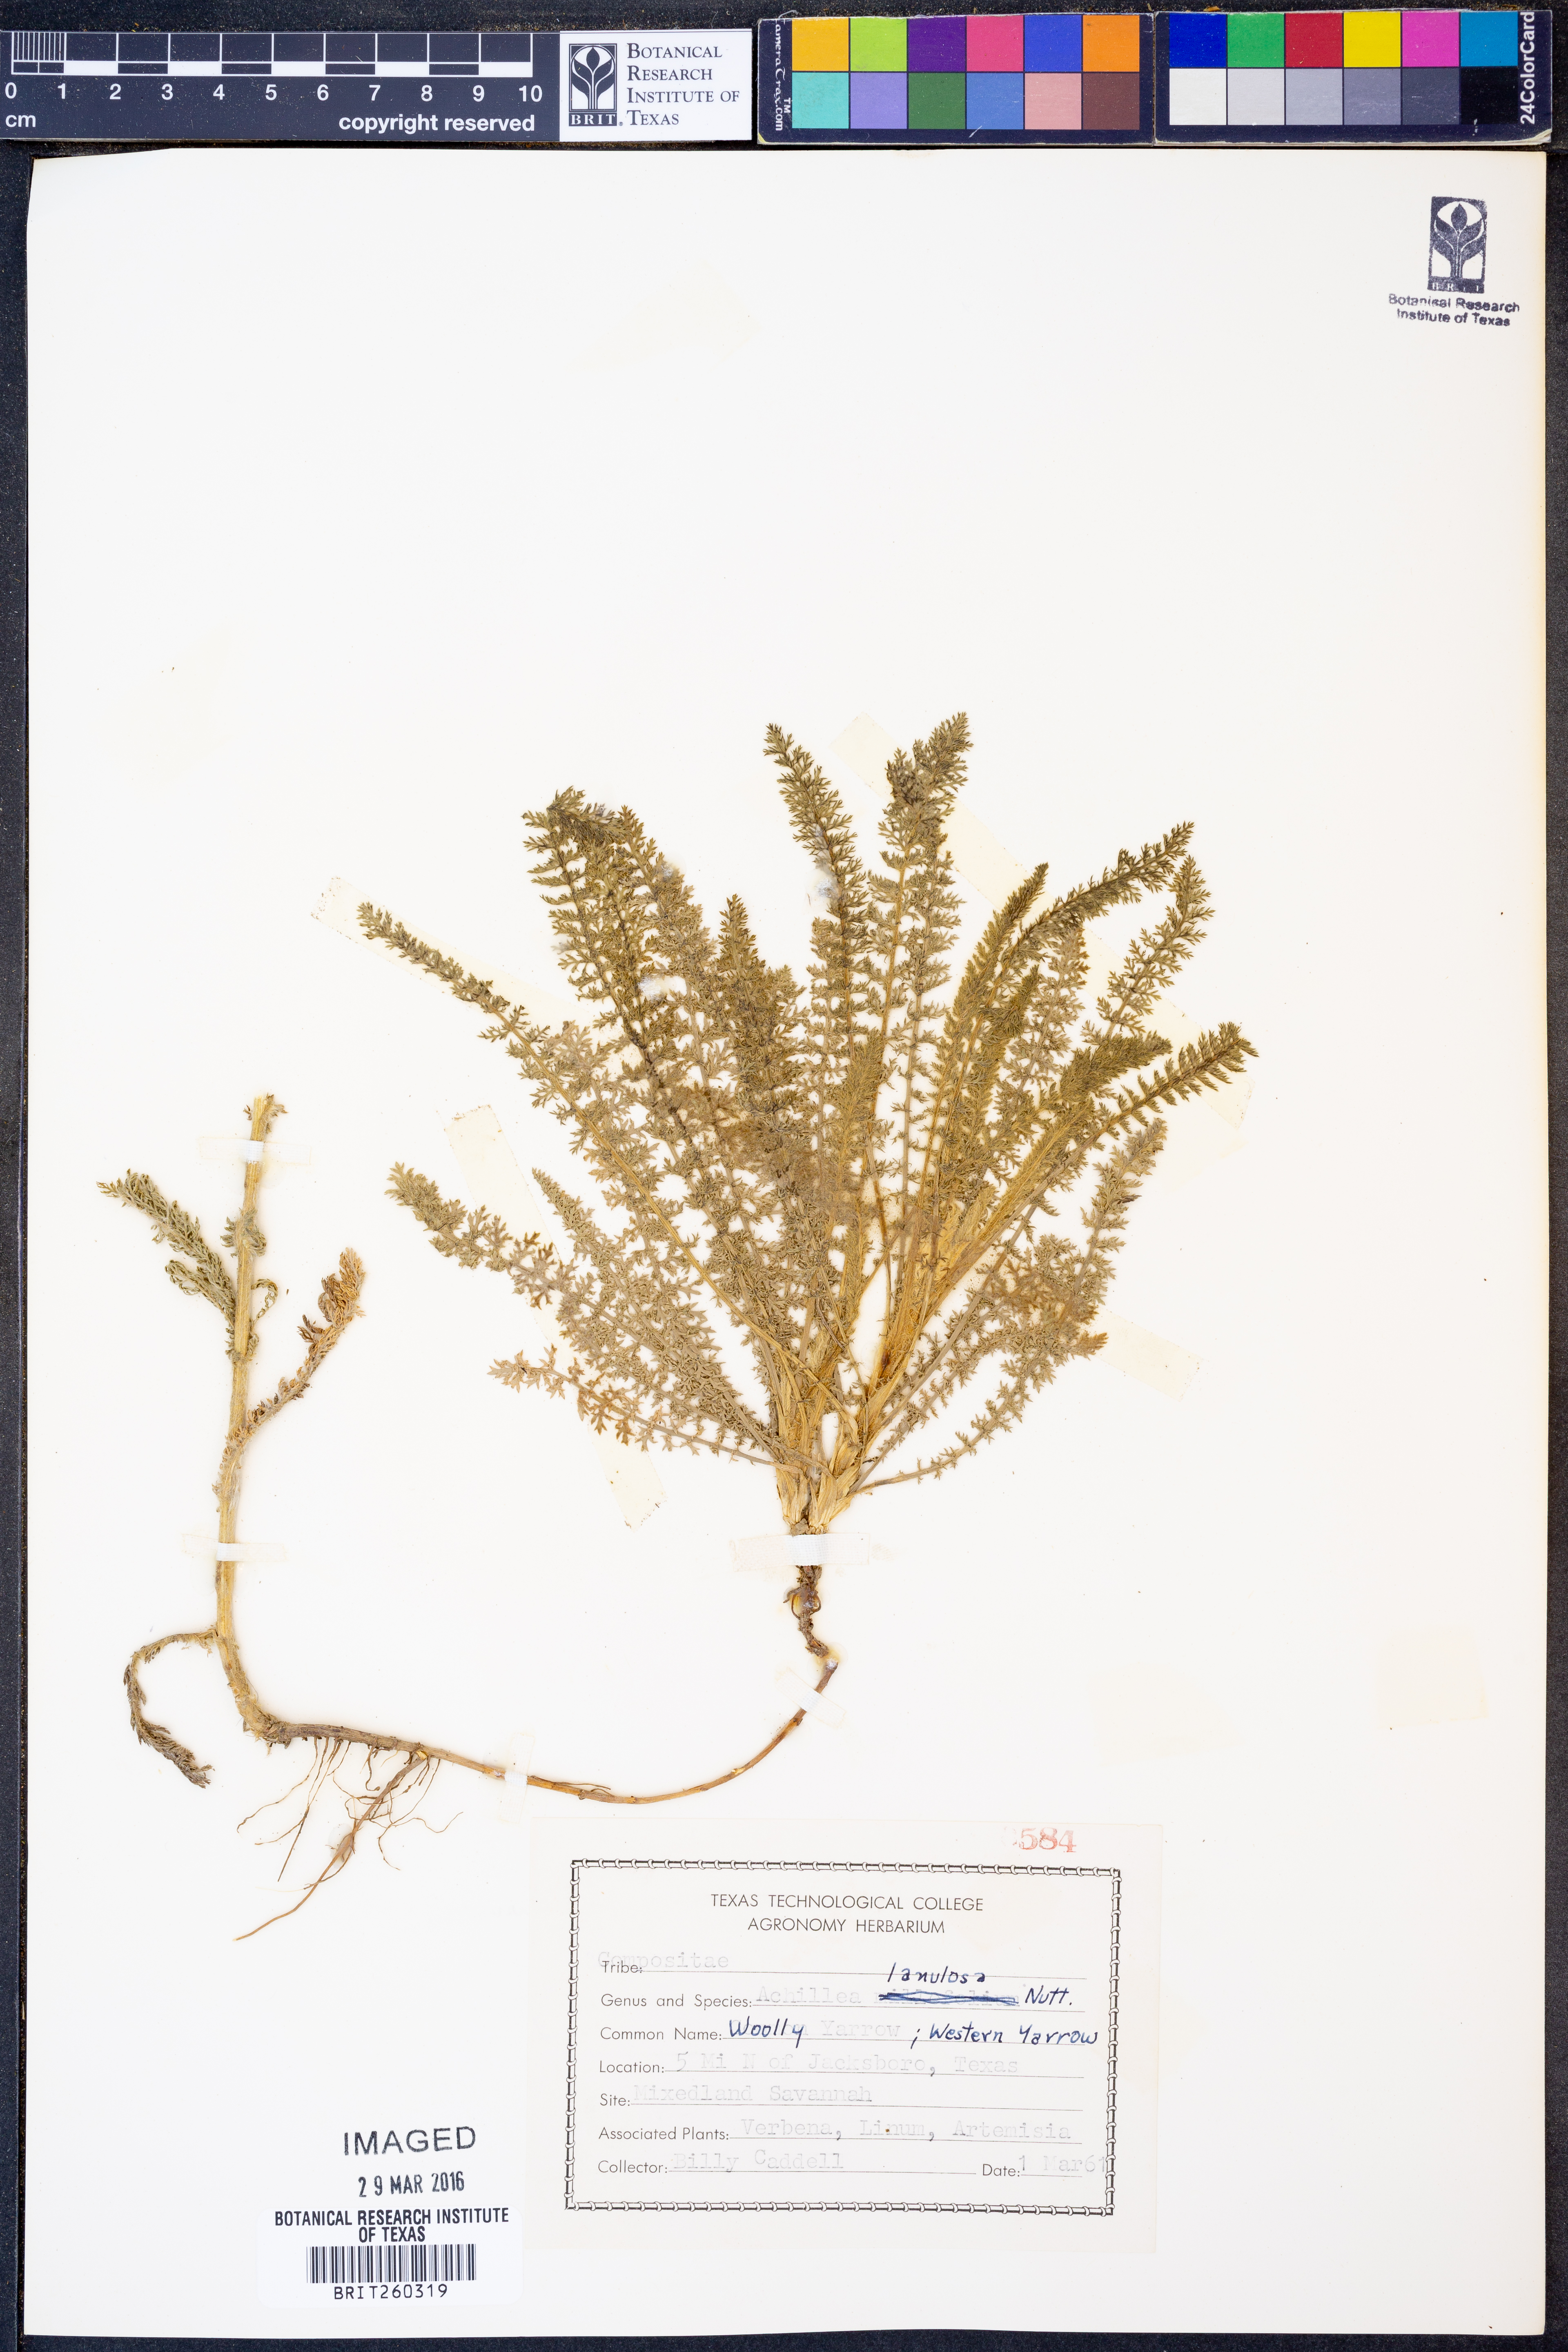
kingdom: Plantae
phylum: Tracheophyta
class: Magnoliopsida
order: Asterales
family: Asteraceae
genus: Achillea
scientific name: Achillea millefolium
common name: Yarrow
